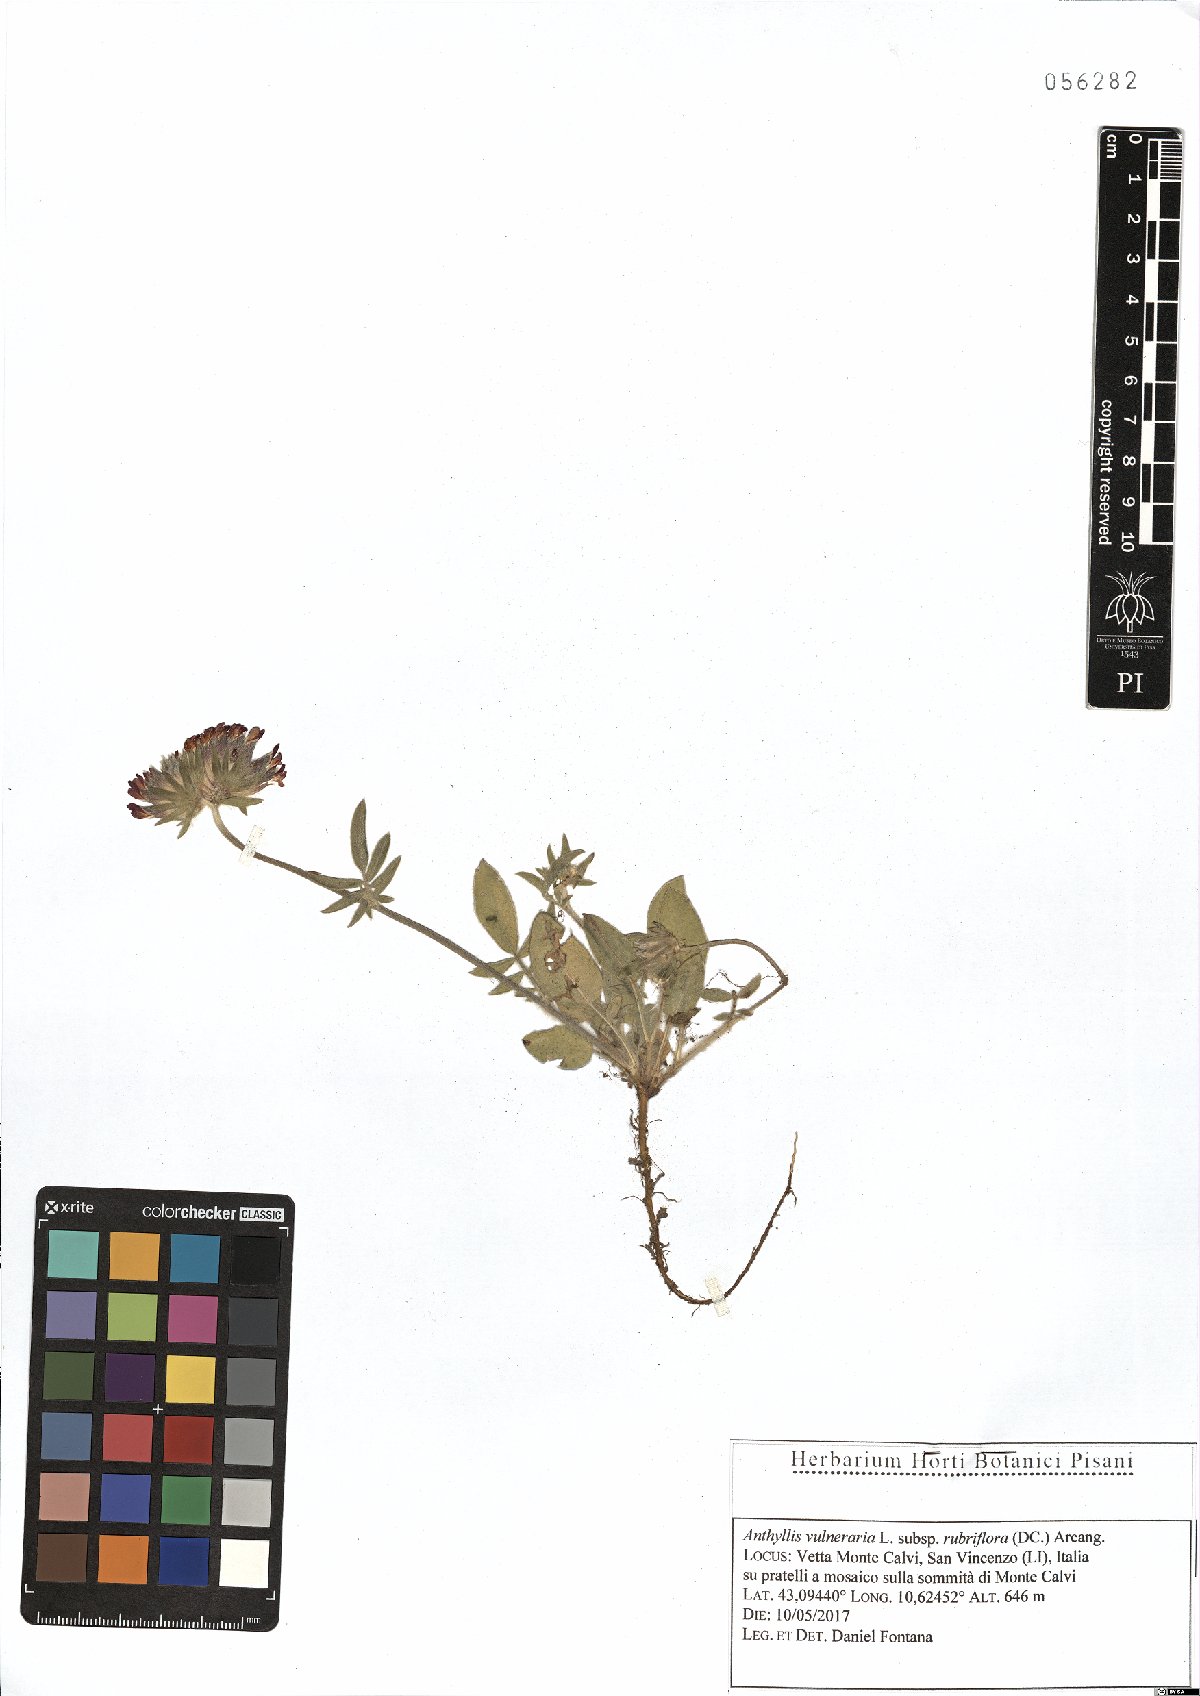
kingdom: Plantae
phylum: Tracheophyta
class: Magnoliopsida
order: Fabales
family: Fabaceae
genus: Anthyllis
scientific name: Anthyllis vulneraria
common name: Kidney vetch
